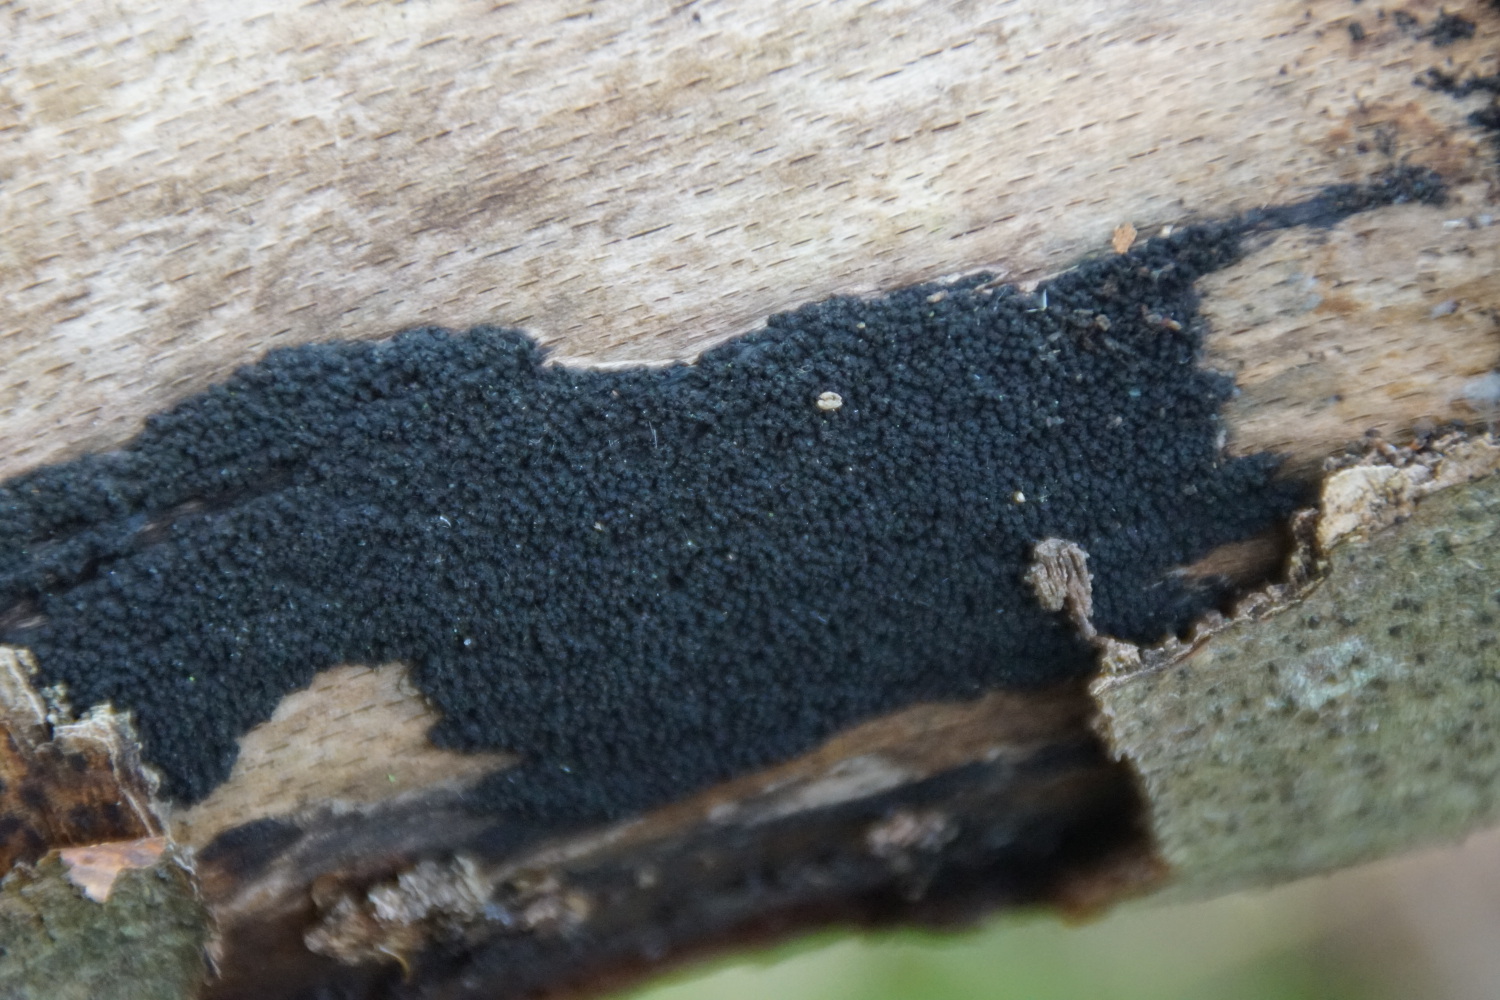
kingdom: Fungi
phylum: Ascomycota
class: Sordariomycetes
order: Xylariales
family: Diatrypaceae
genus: Eutypa
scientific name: Eutypa spinosa
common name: grov kulskorpe
